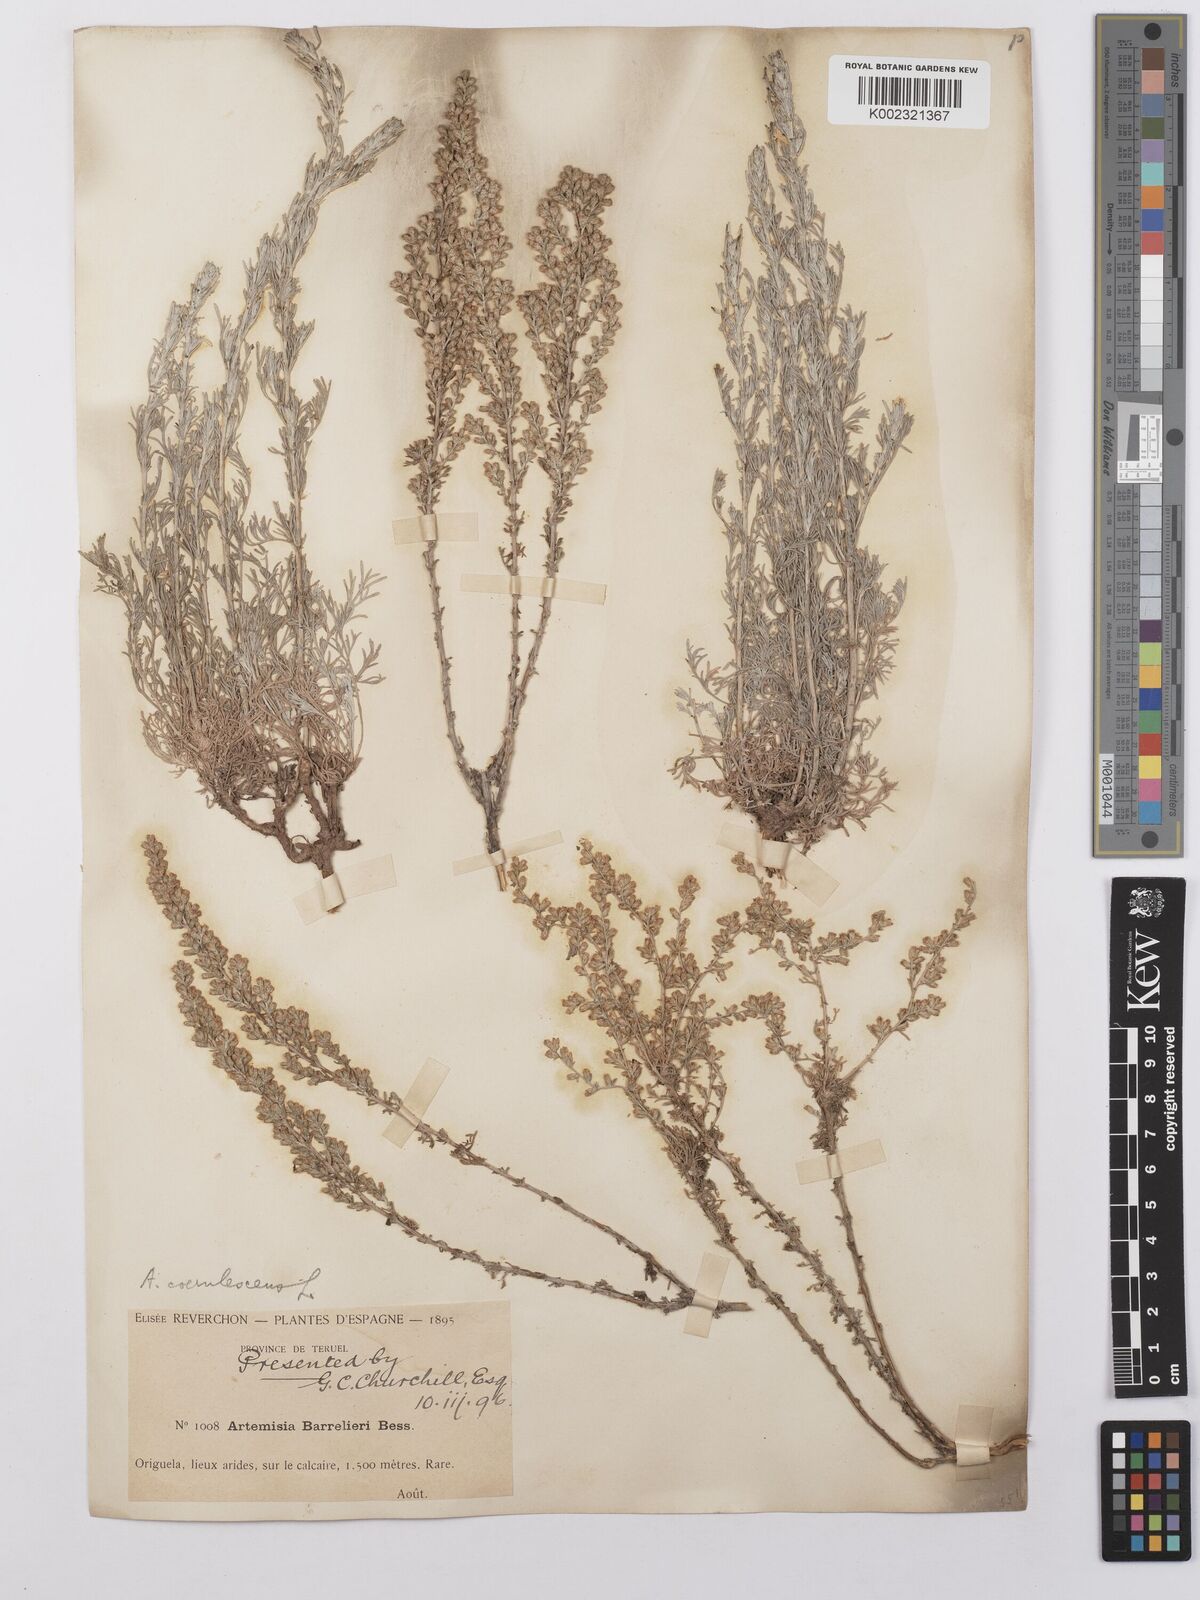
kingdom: Plantae
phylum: Tracheophyta
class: Magnoliopsida
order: Asterales
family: Asteraceae
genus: Artemisia
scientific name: Artemisia barrelieri
